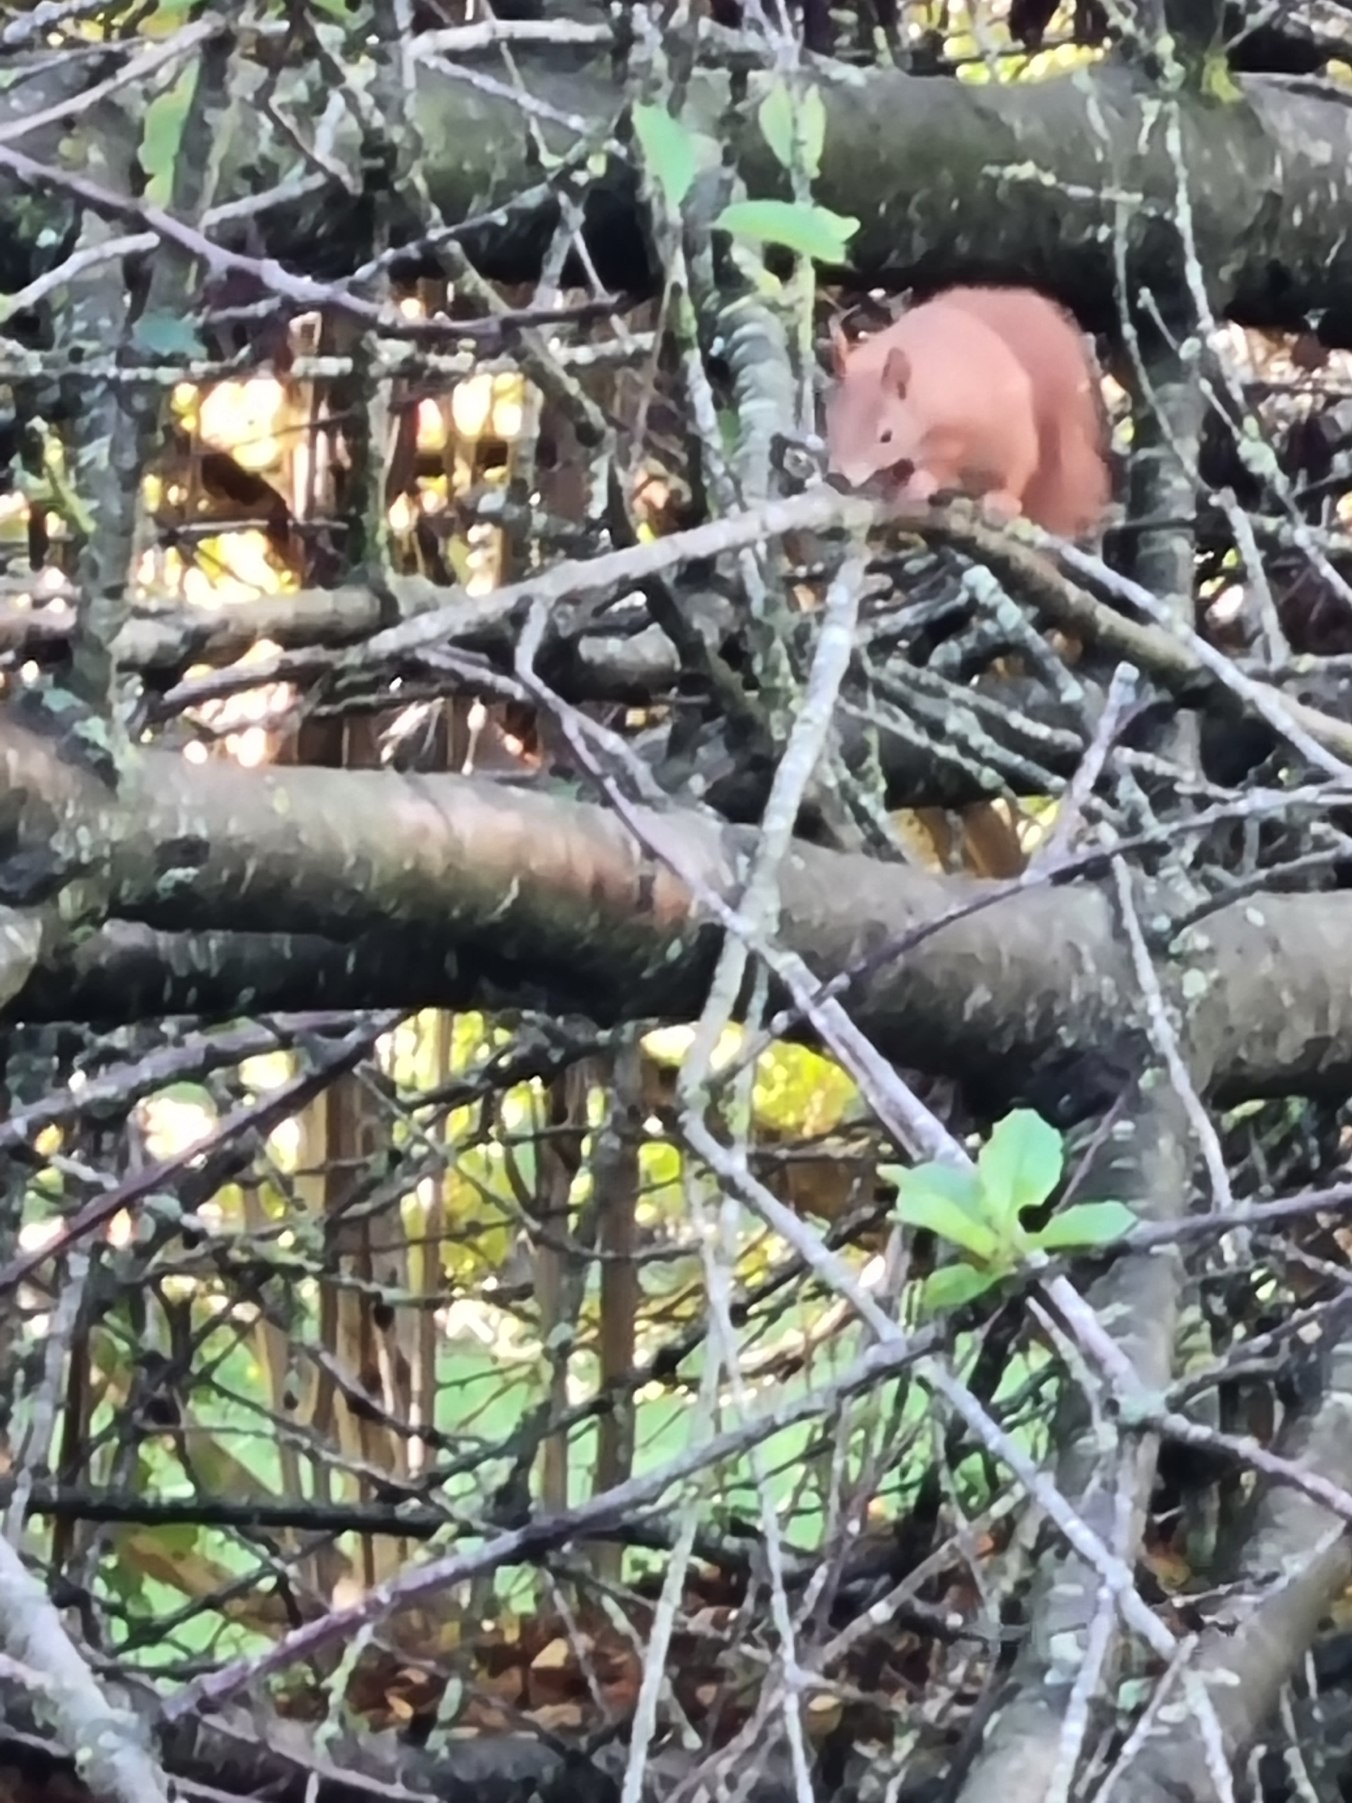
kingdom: Animalia
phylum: Chordata
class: Mammalia
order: Rodentia
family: Sciuridae
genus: Sciurus
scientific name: Sciurus vulgaris
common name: Egern
